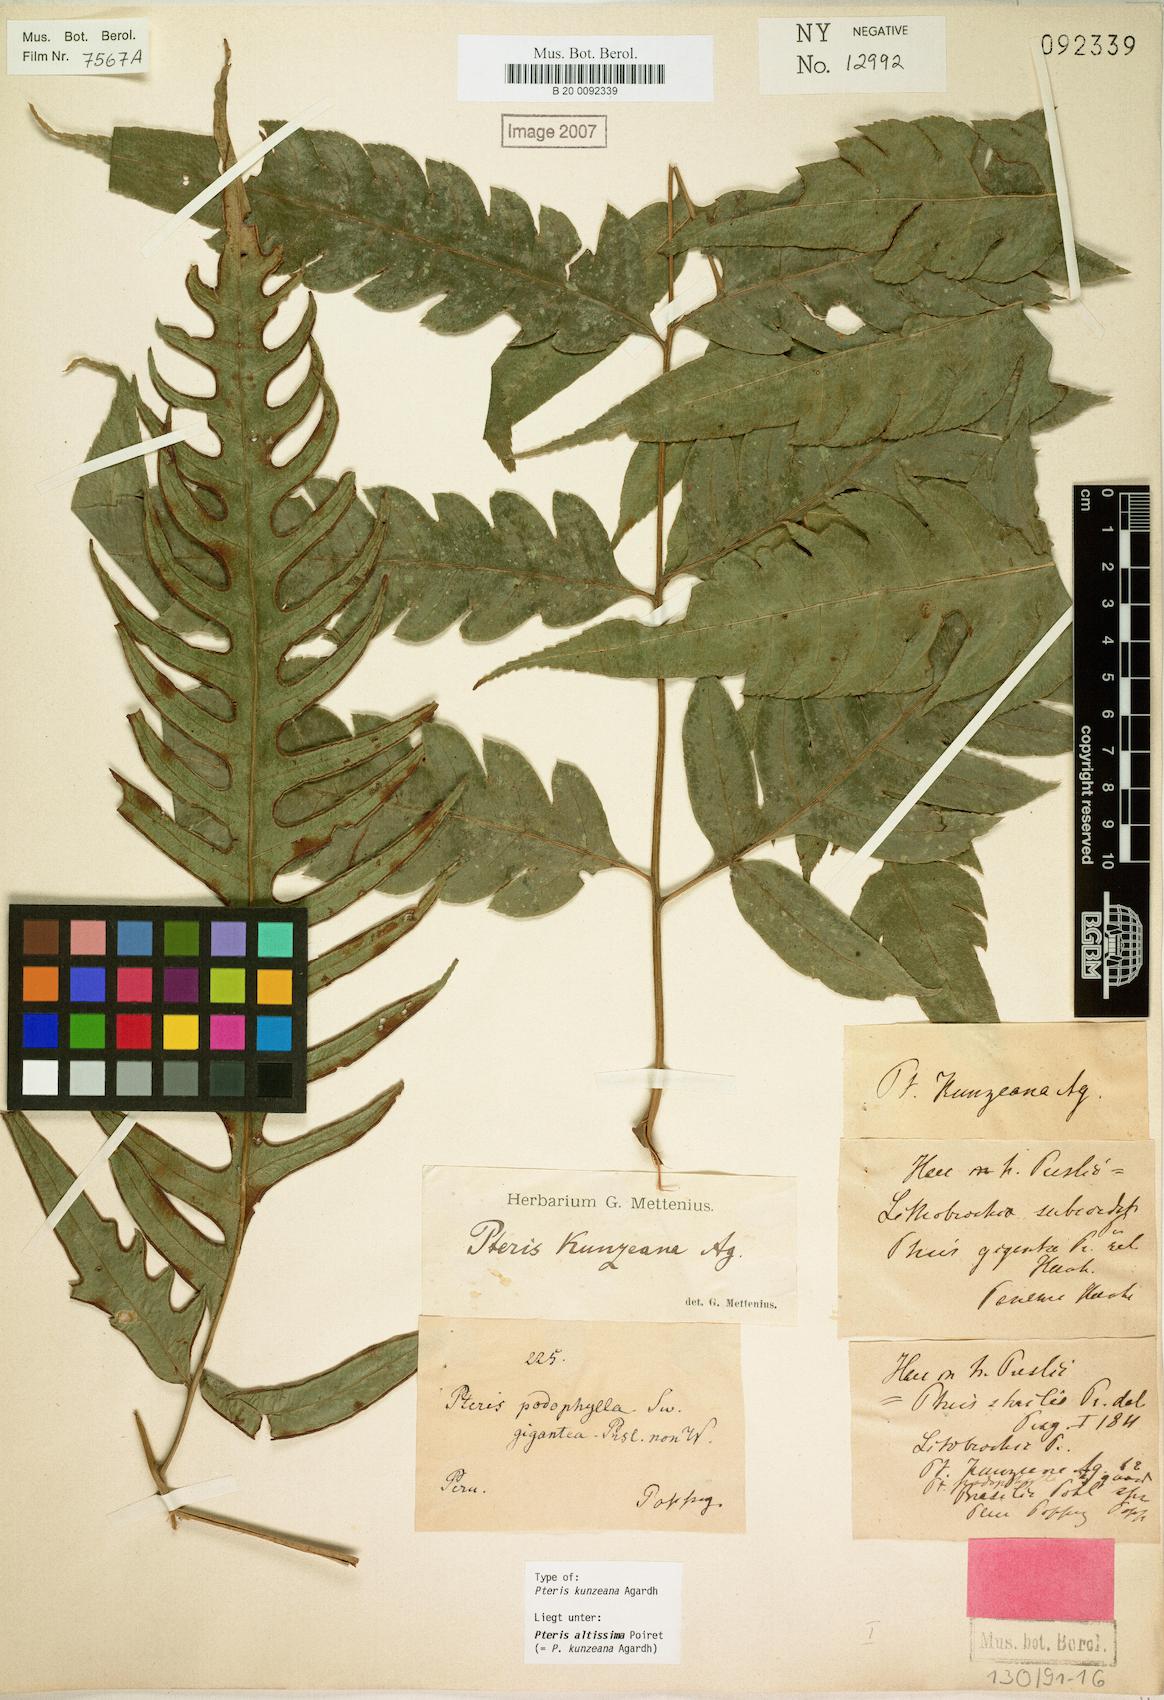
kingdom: Plantae
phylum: Tracheophyta
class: Polypodiopsida
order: Polypodiales
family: Pteridaceae
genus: Pteris
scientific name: Pteris altissima
